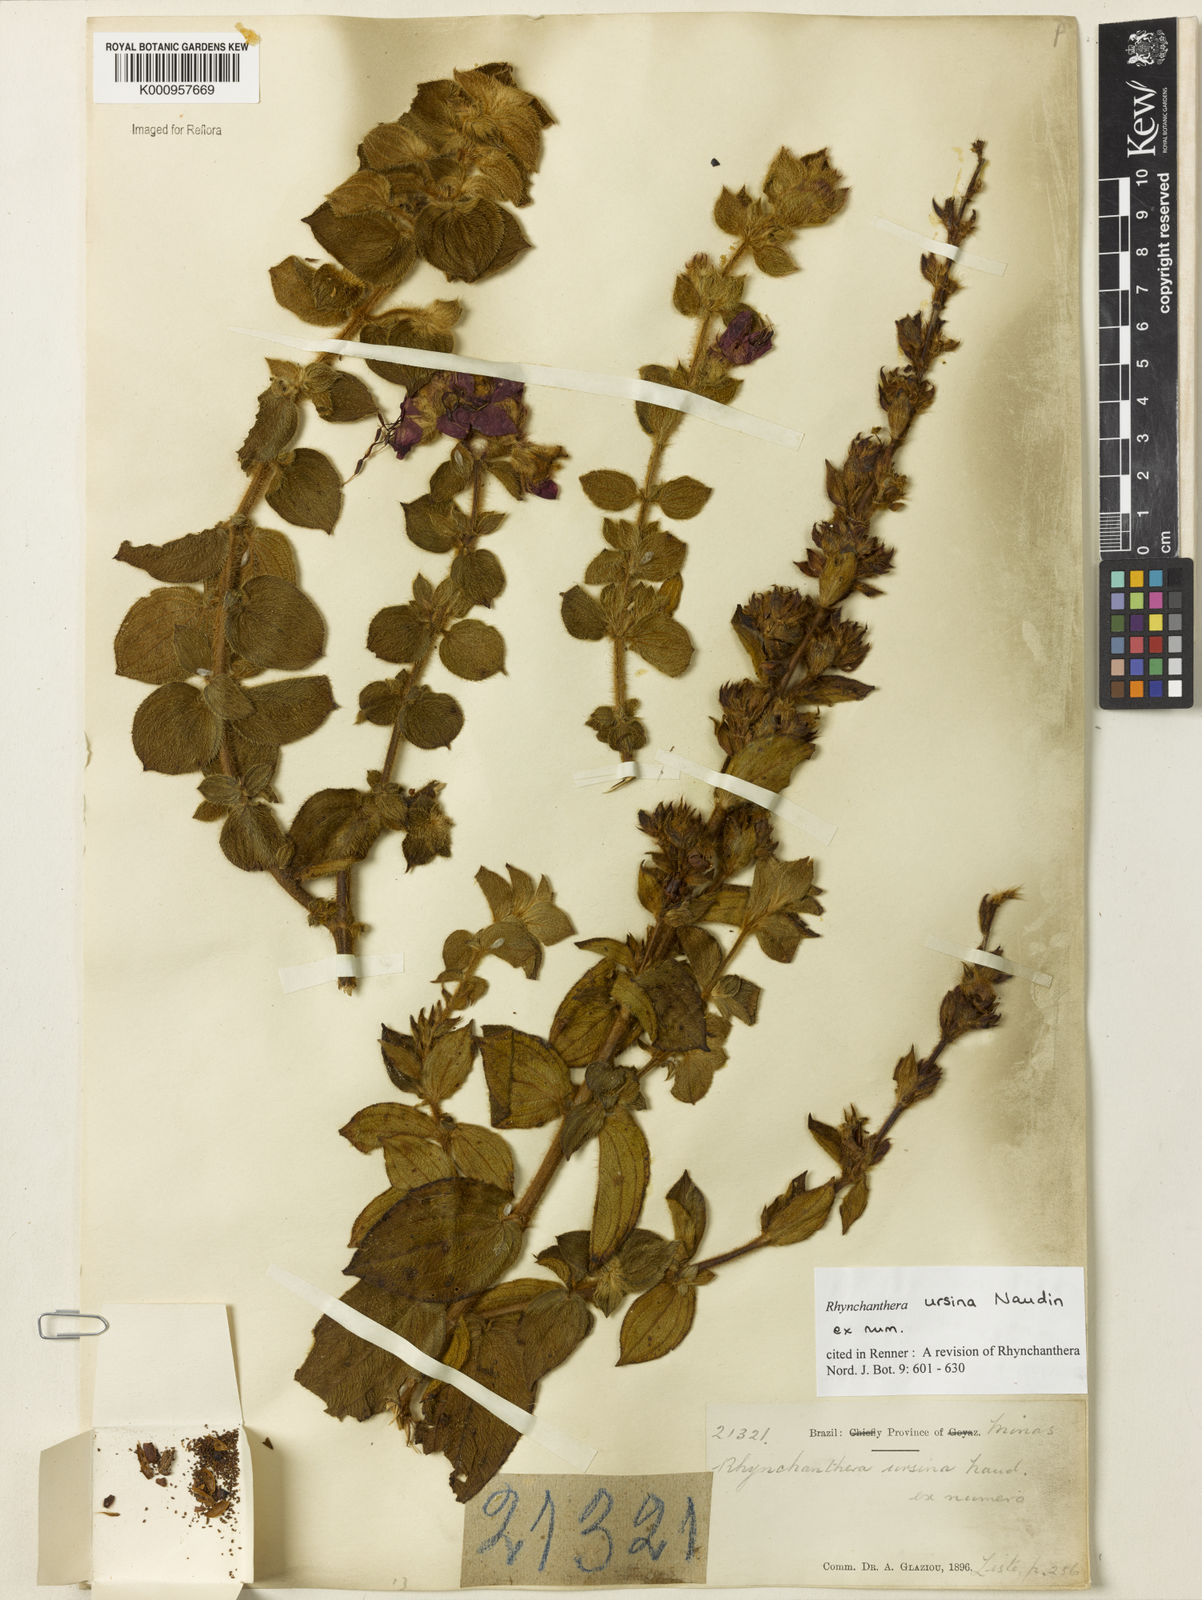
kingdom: Plantae
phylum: Tracheophyta
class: Magnoliopsida
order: Myrtales
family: Melastomataceae
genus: Rhynchanthera
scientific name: Rhynchanthera ursina
